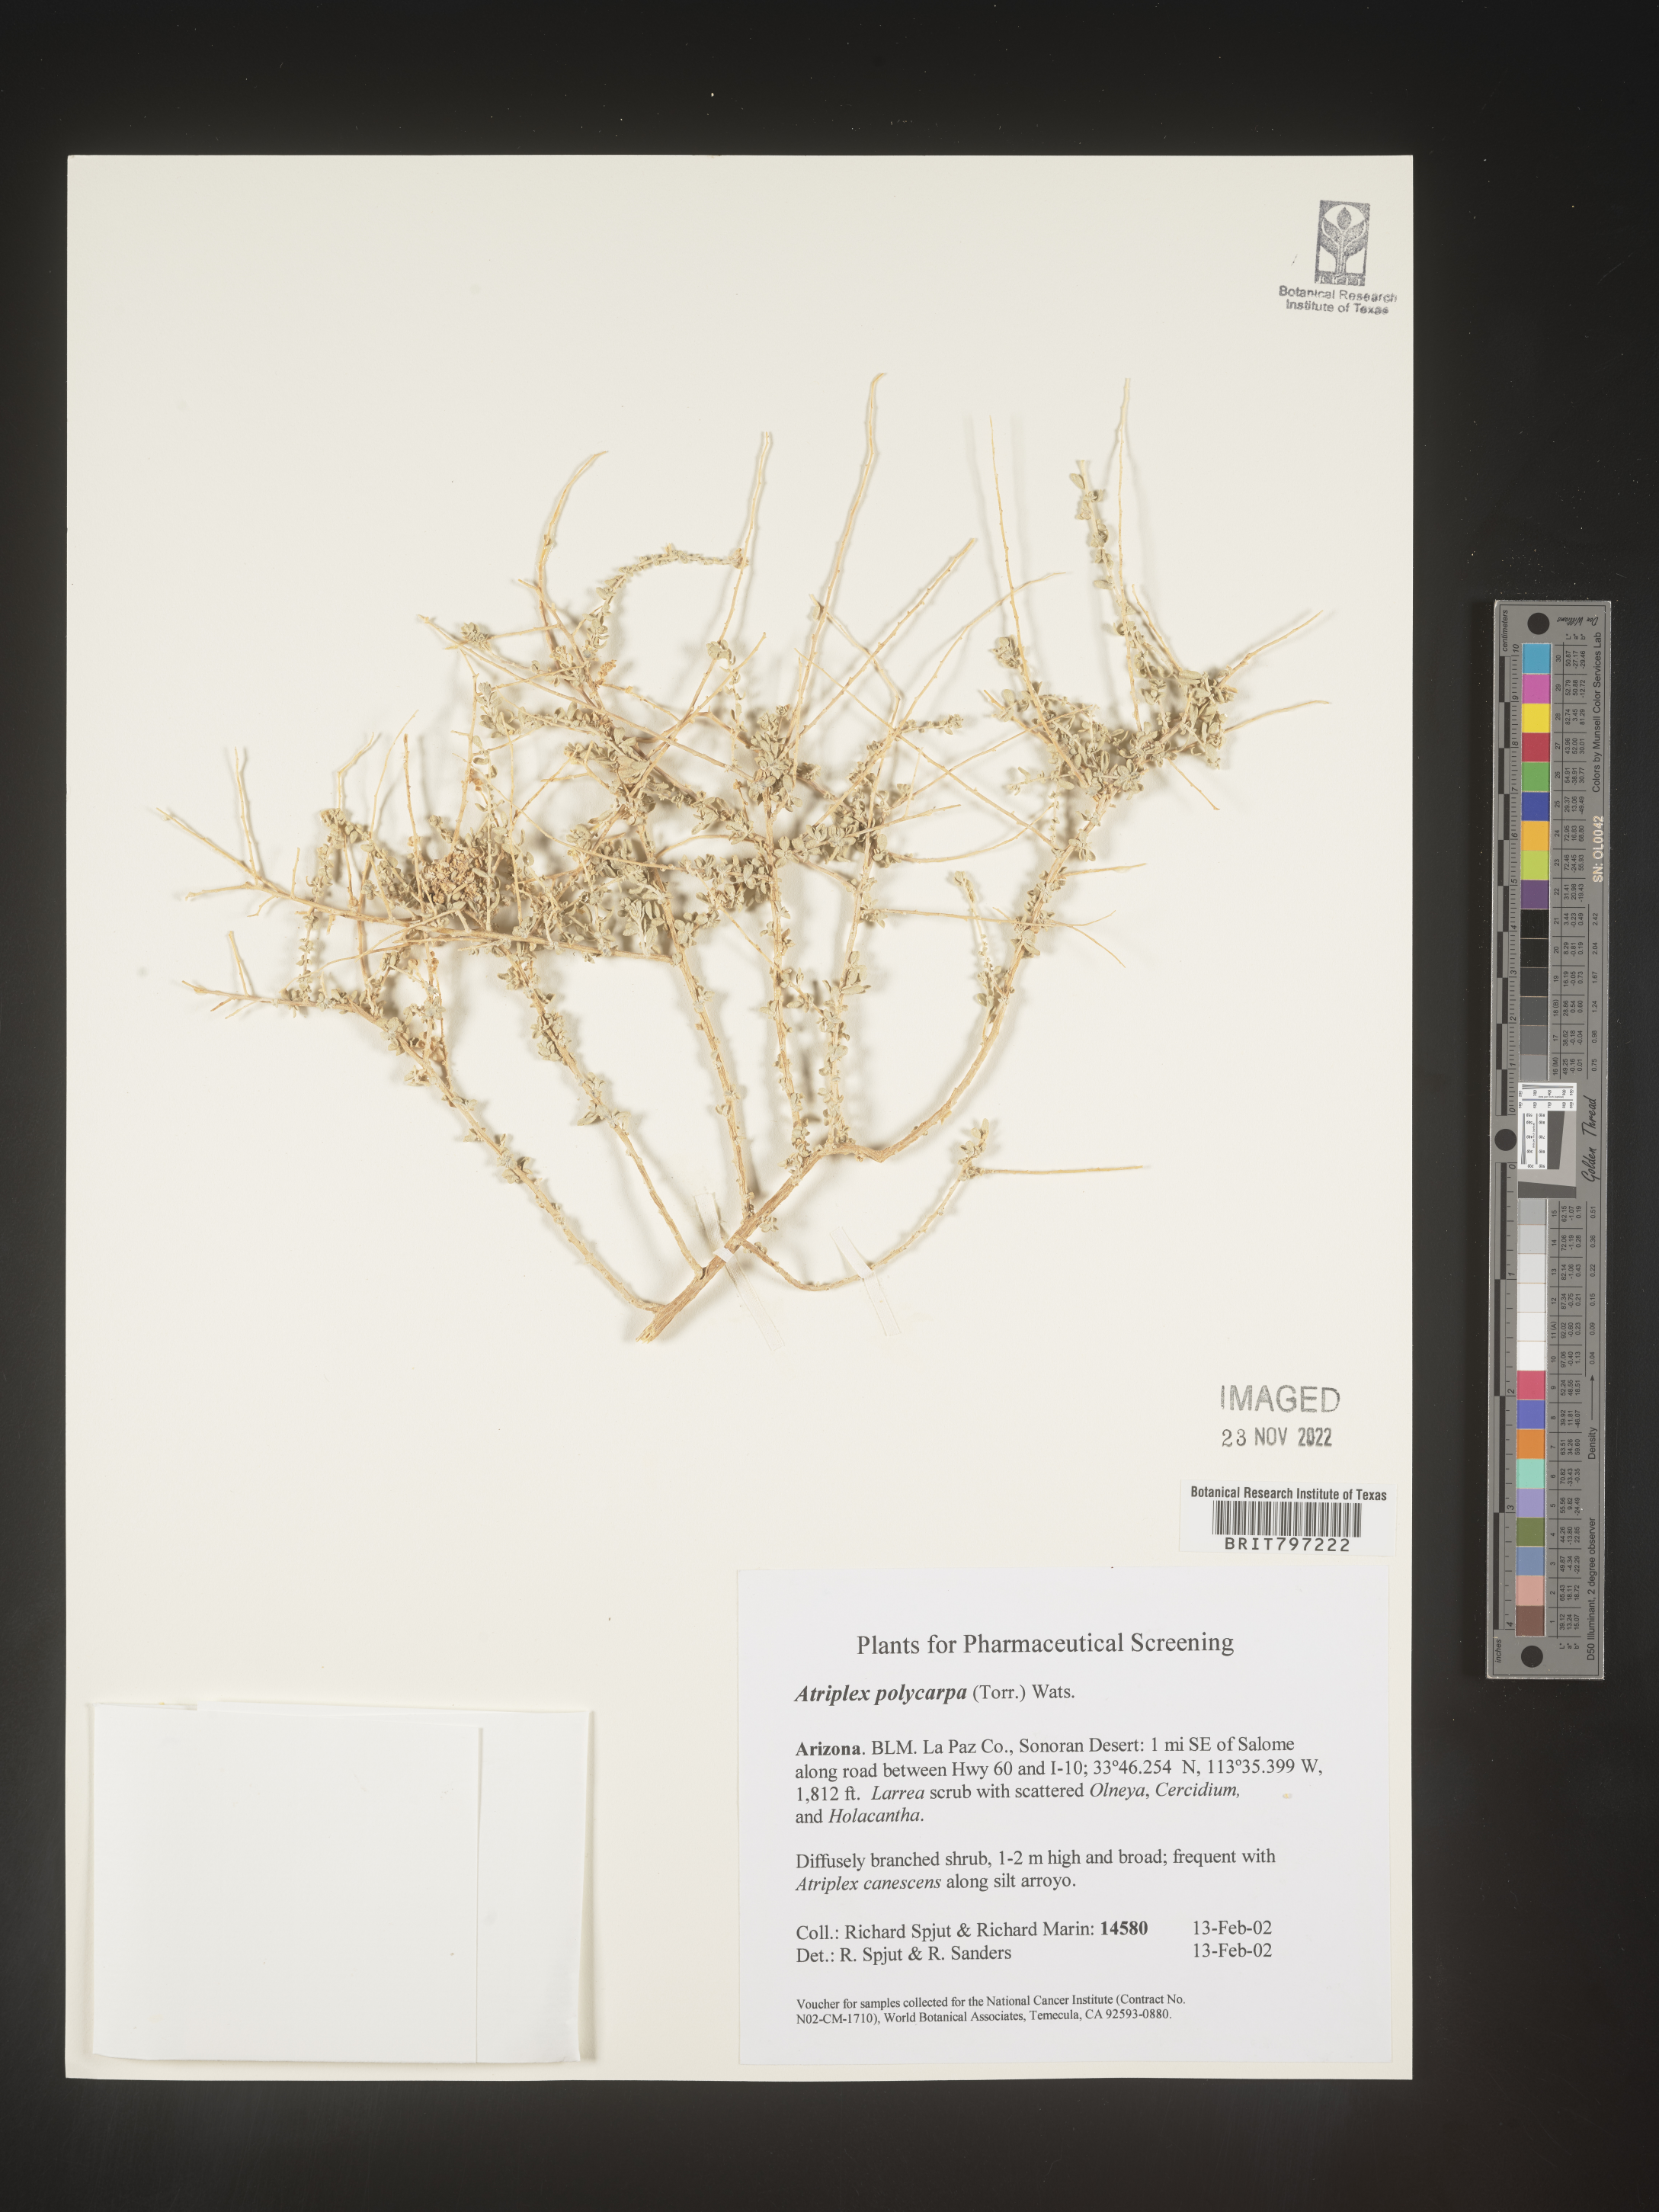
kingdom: Plantae
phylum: Tracheophyta
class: Magnoliopsida
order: Caryophyllales
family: Amaranthaceae
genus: Atriplex
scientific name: Atriplex polycarpa
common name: Desert saltbush
